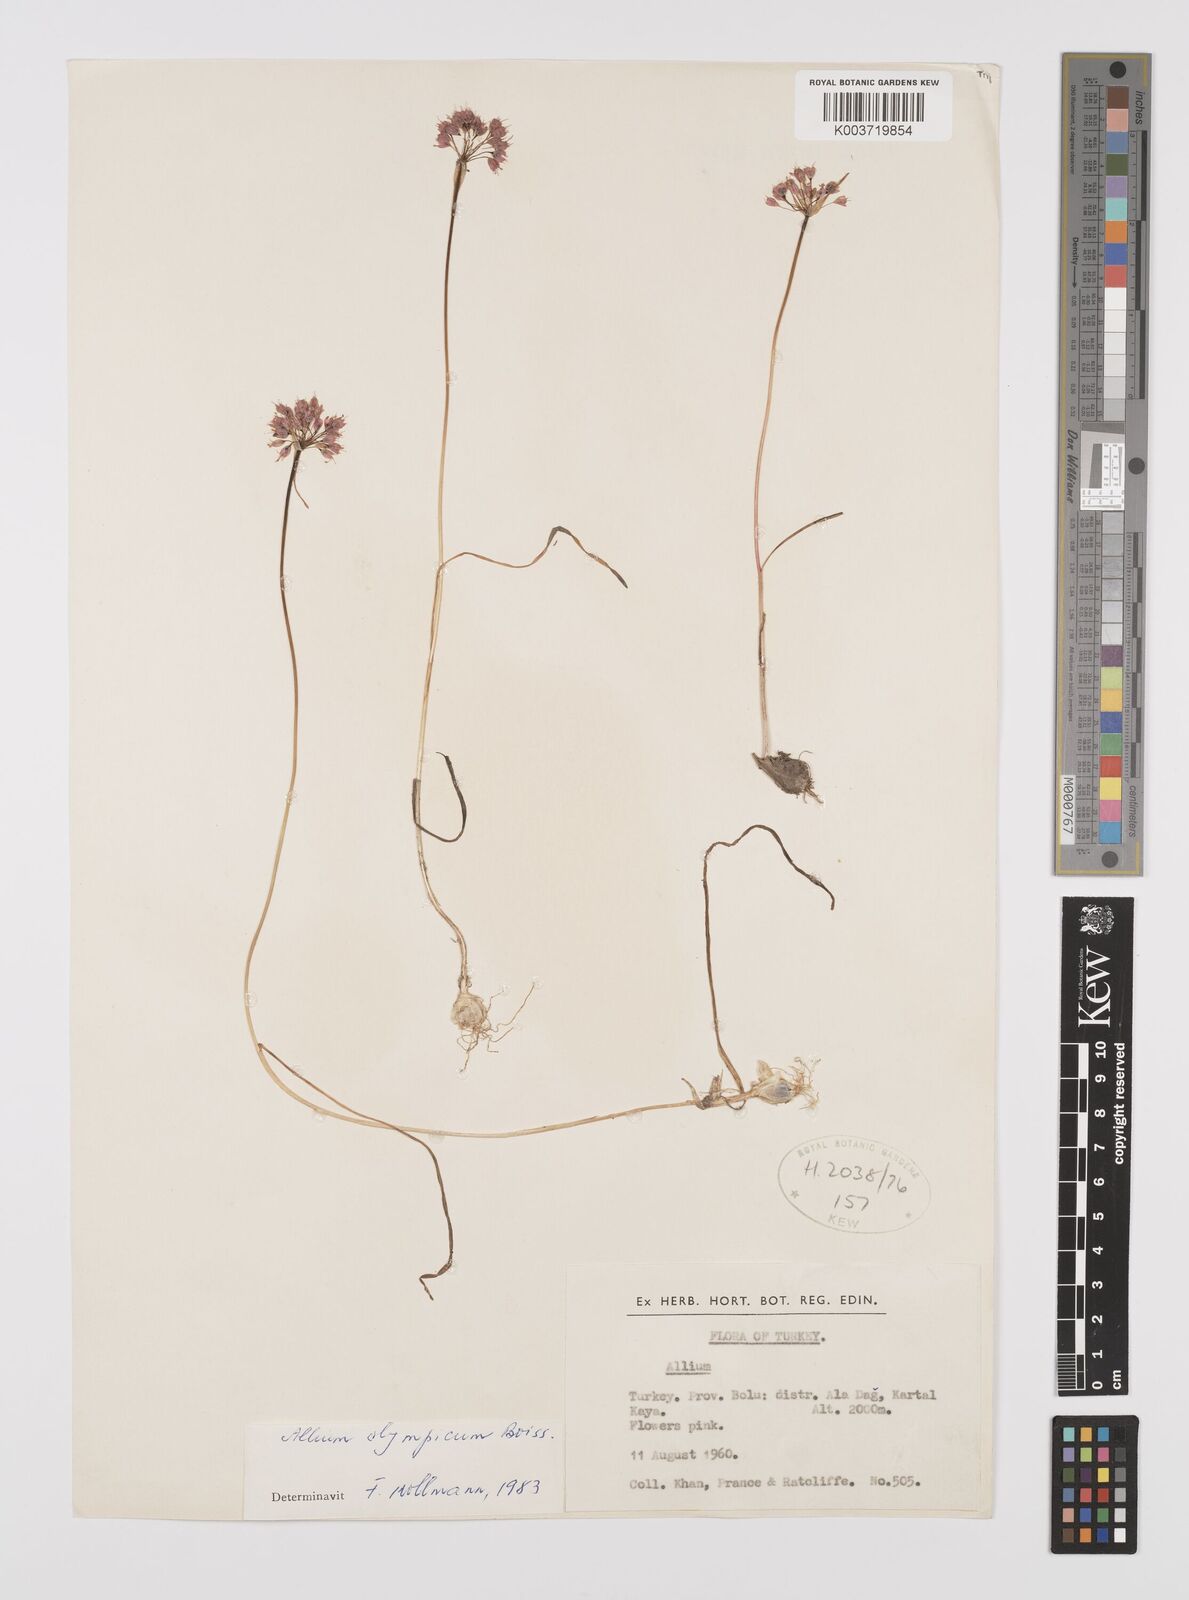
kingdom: Plantae
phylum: Tracheophyta
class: Liliopsida
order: Asparagales
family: Amaryllidaceae
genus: Allium
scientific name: Allium olympicum
